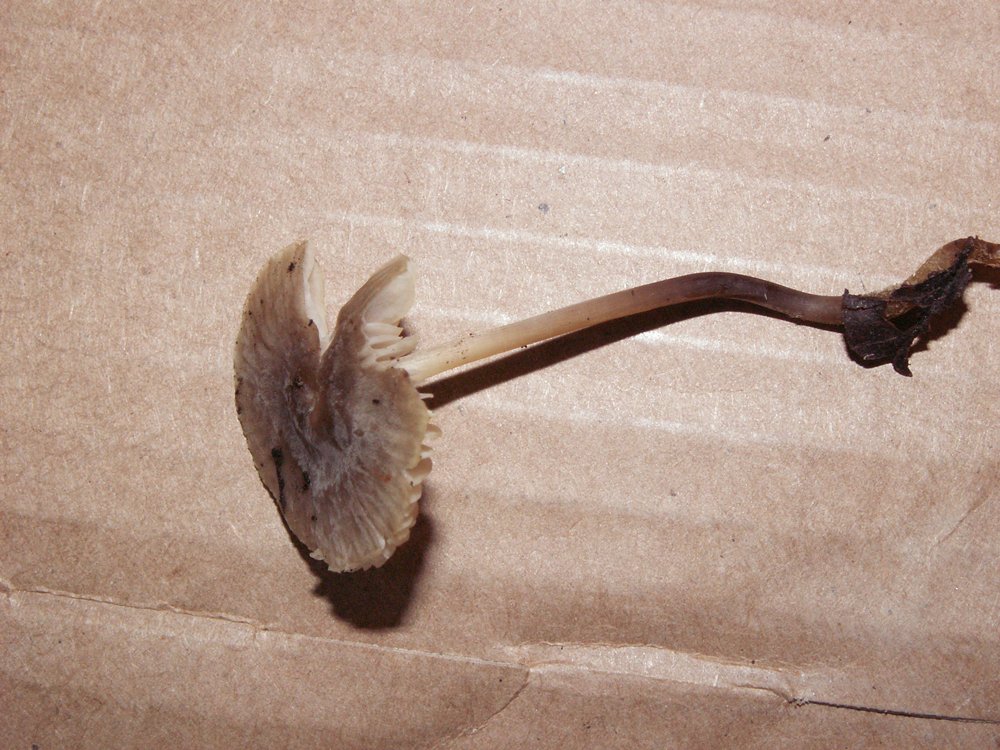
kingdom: Fungi
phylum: Basidiomycota
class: Agaricomycetes
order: Agaricales
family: Mycenaceae
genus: Mycena
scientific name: Mycena filopes
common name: jod-huesvamp
